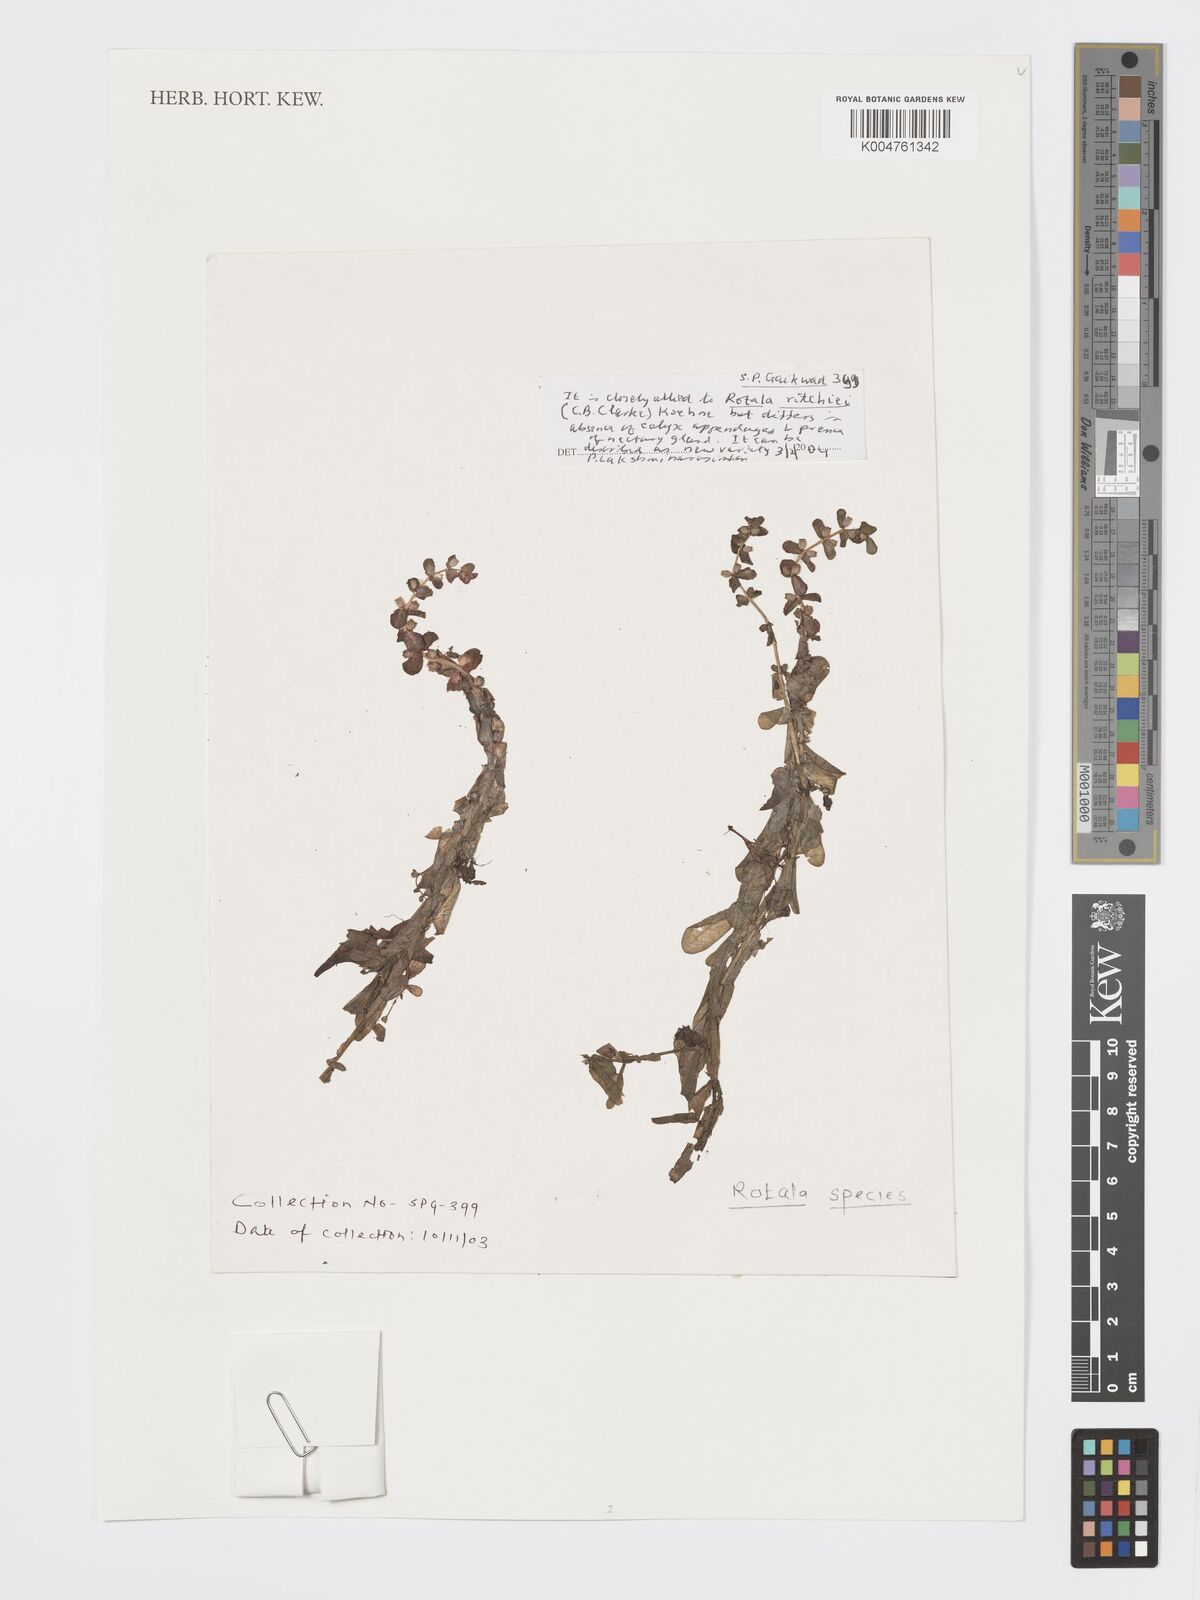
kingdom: Plantae
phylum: Tracheophyta
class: Magnoliopsida
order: Myrtales
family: Lythraceae
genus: Rotala
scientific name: Rotala
